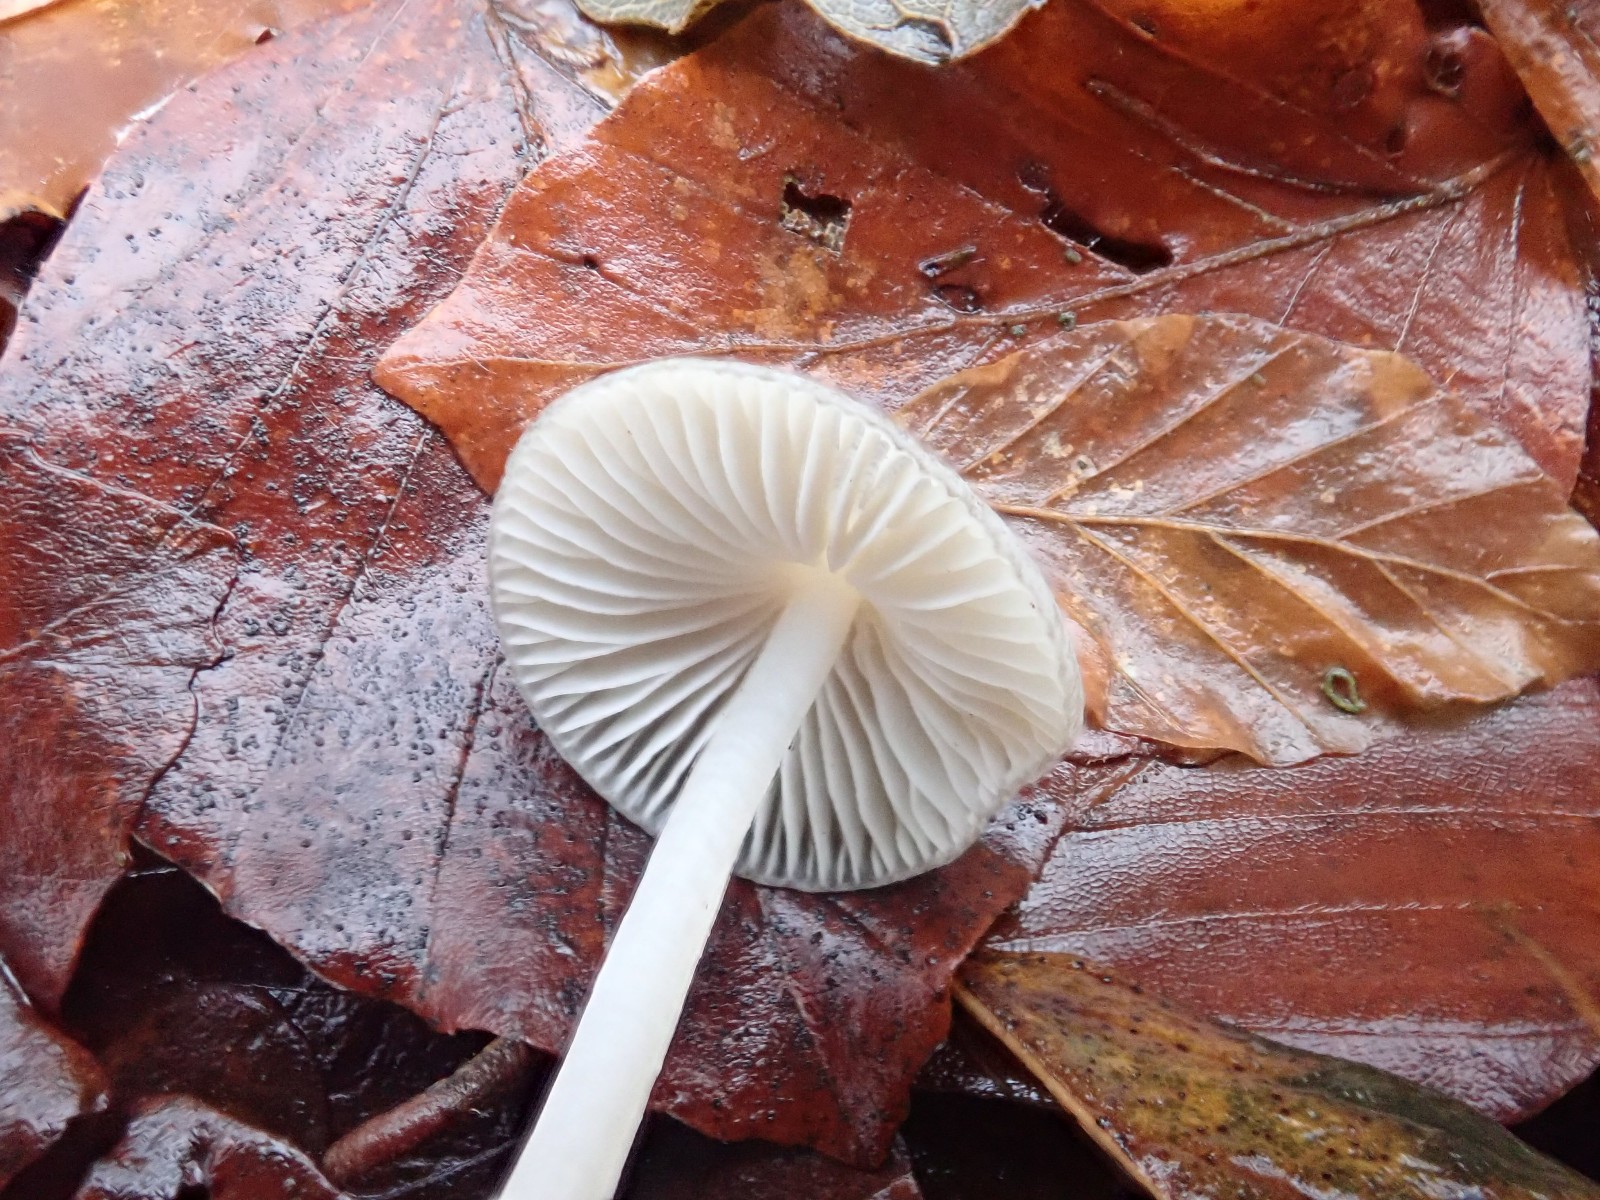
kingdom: Fungi
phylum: Basidiomycota
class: Agaricomycetes
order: Agaricales
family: Mycenaceae
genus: Mycena
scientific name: Mycena vitilis
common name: blankstokket huesvamp
